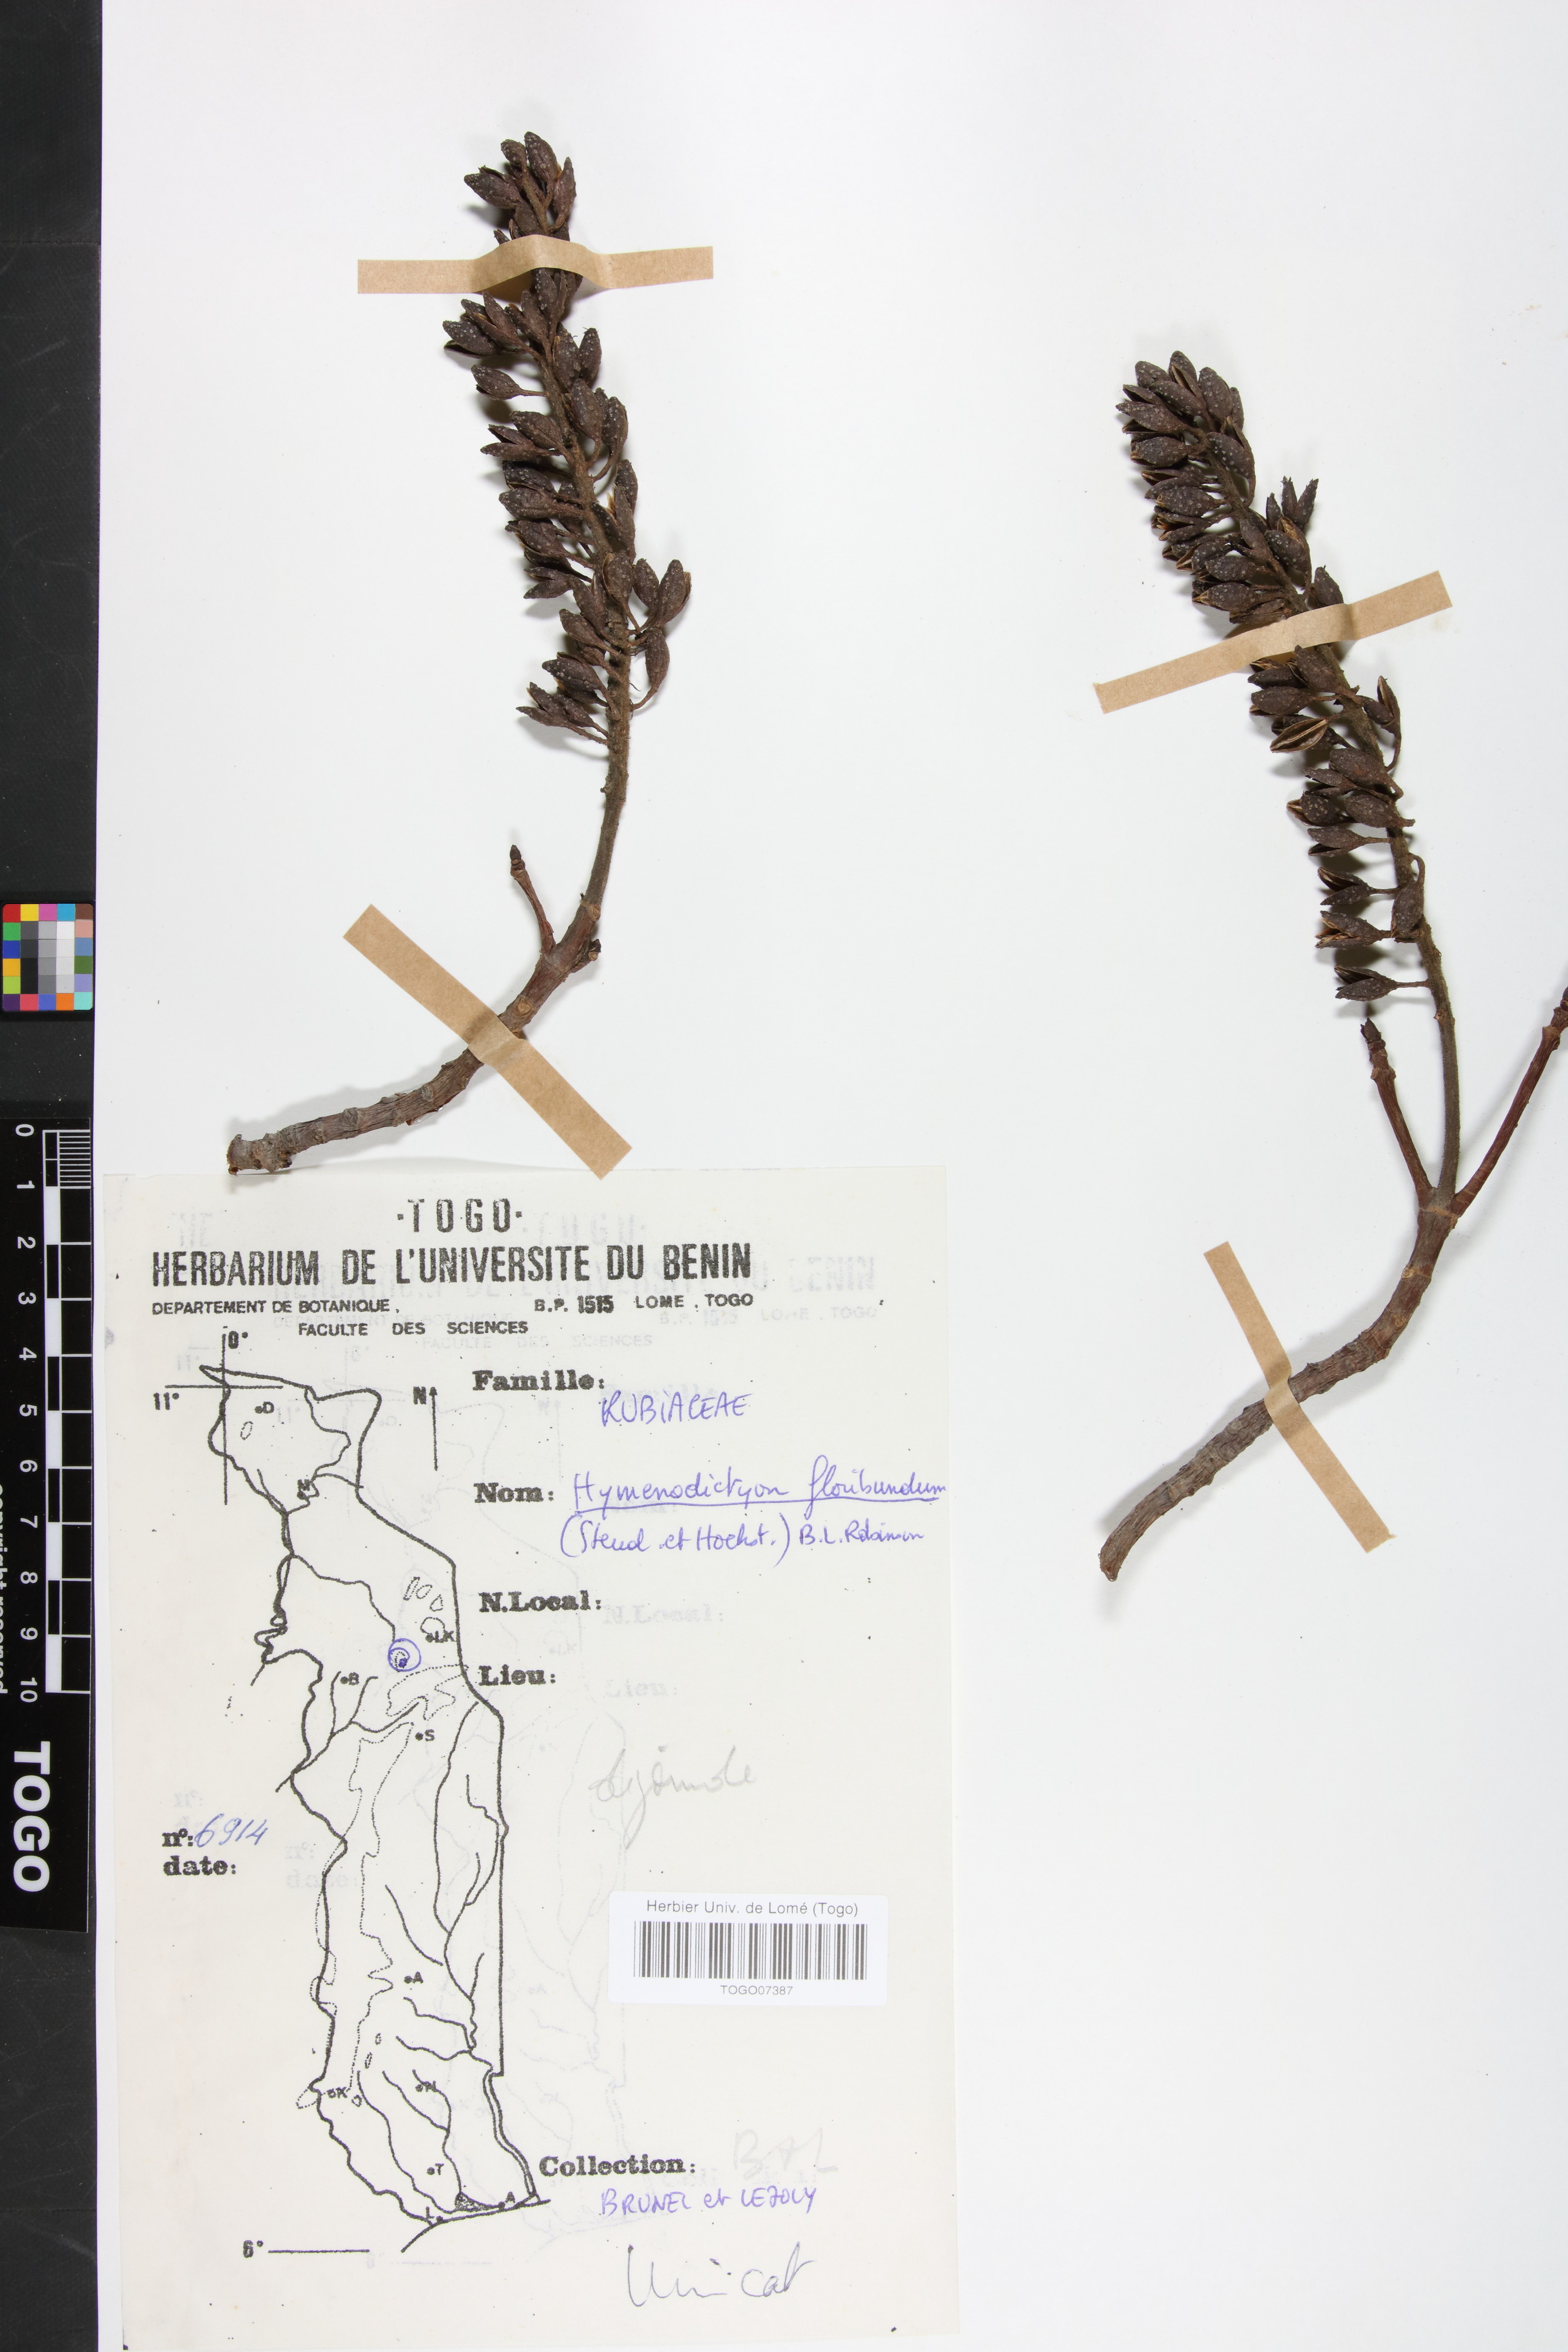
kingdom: Plantae
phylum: Tracheophyta
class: Magnoliopsida
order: Gentianales
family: Rubiaceae
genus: Hymenodictyon
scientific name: Hymenodictyon floribundum
